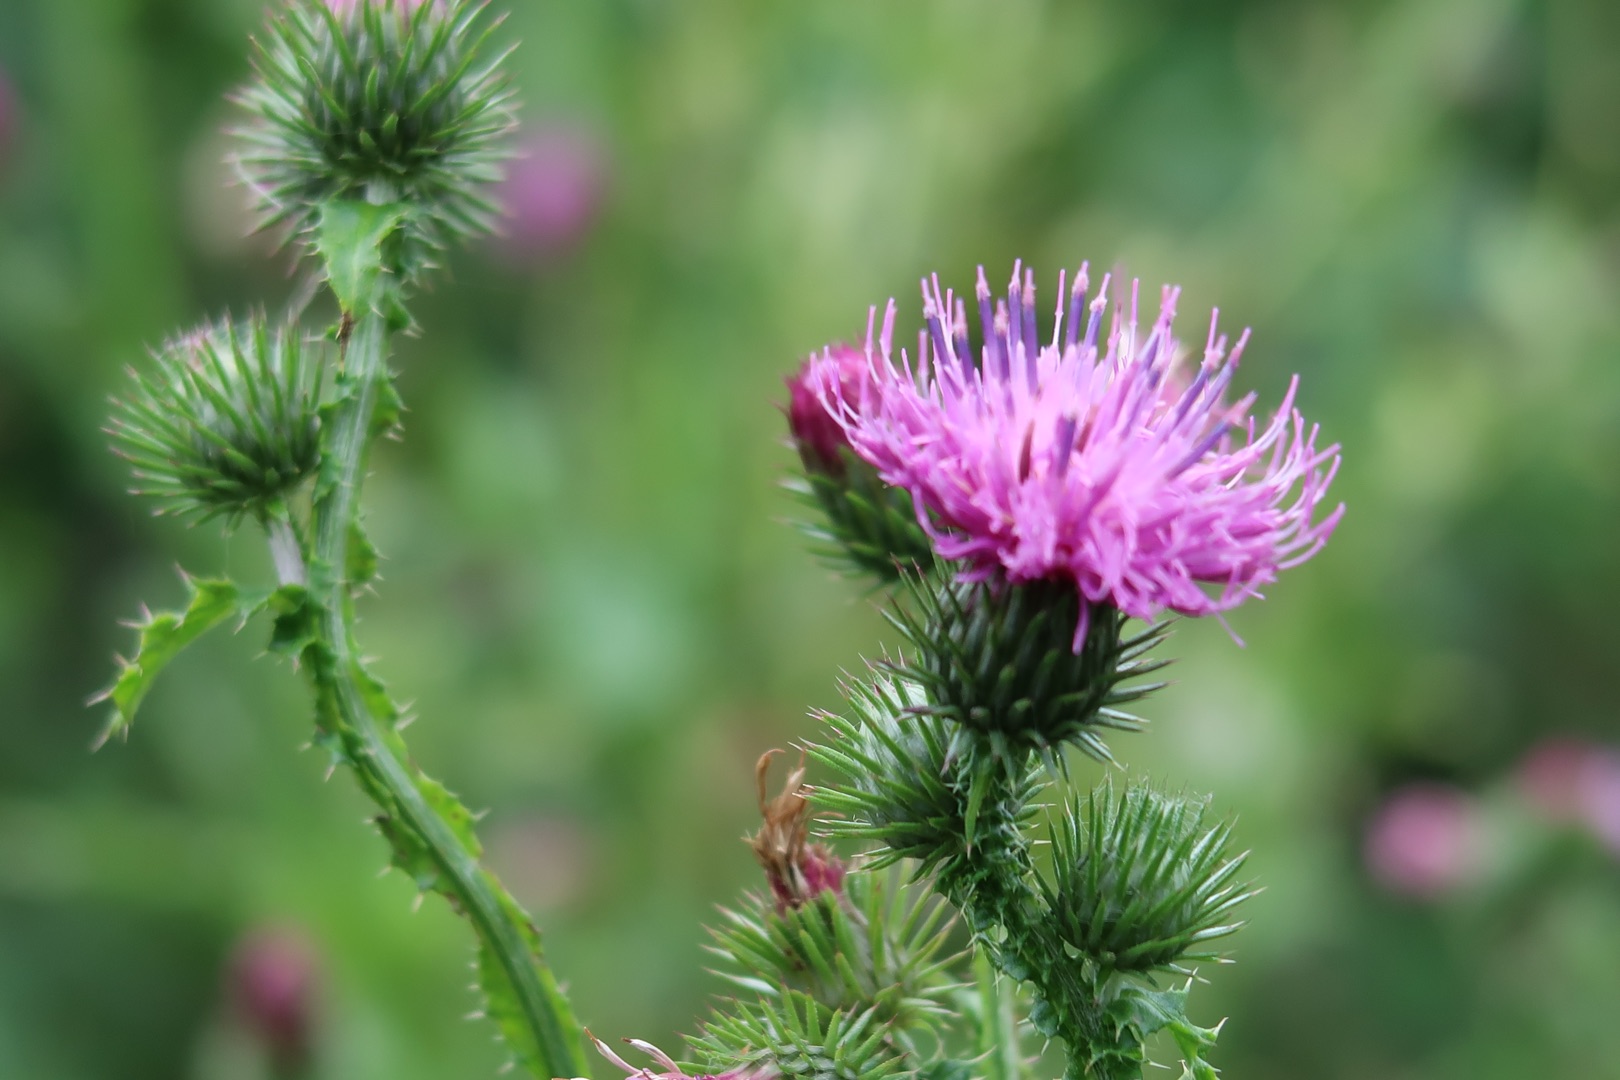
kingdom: Plantae
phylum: Tracheophyta
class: Magnoliopsida
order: Asterales
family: Asteraceae
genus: Carduus
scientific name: Carduus crispus
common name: Kruset tidsel
